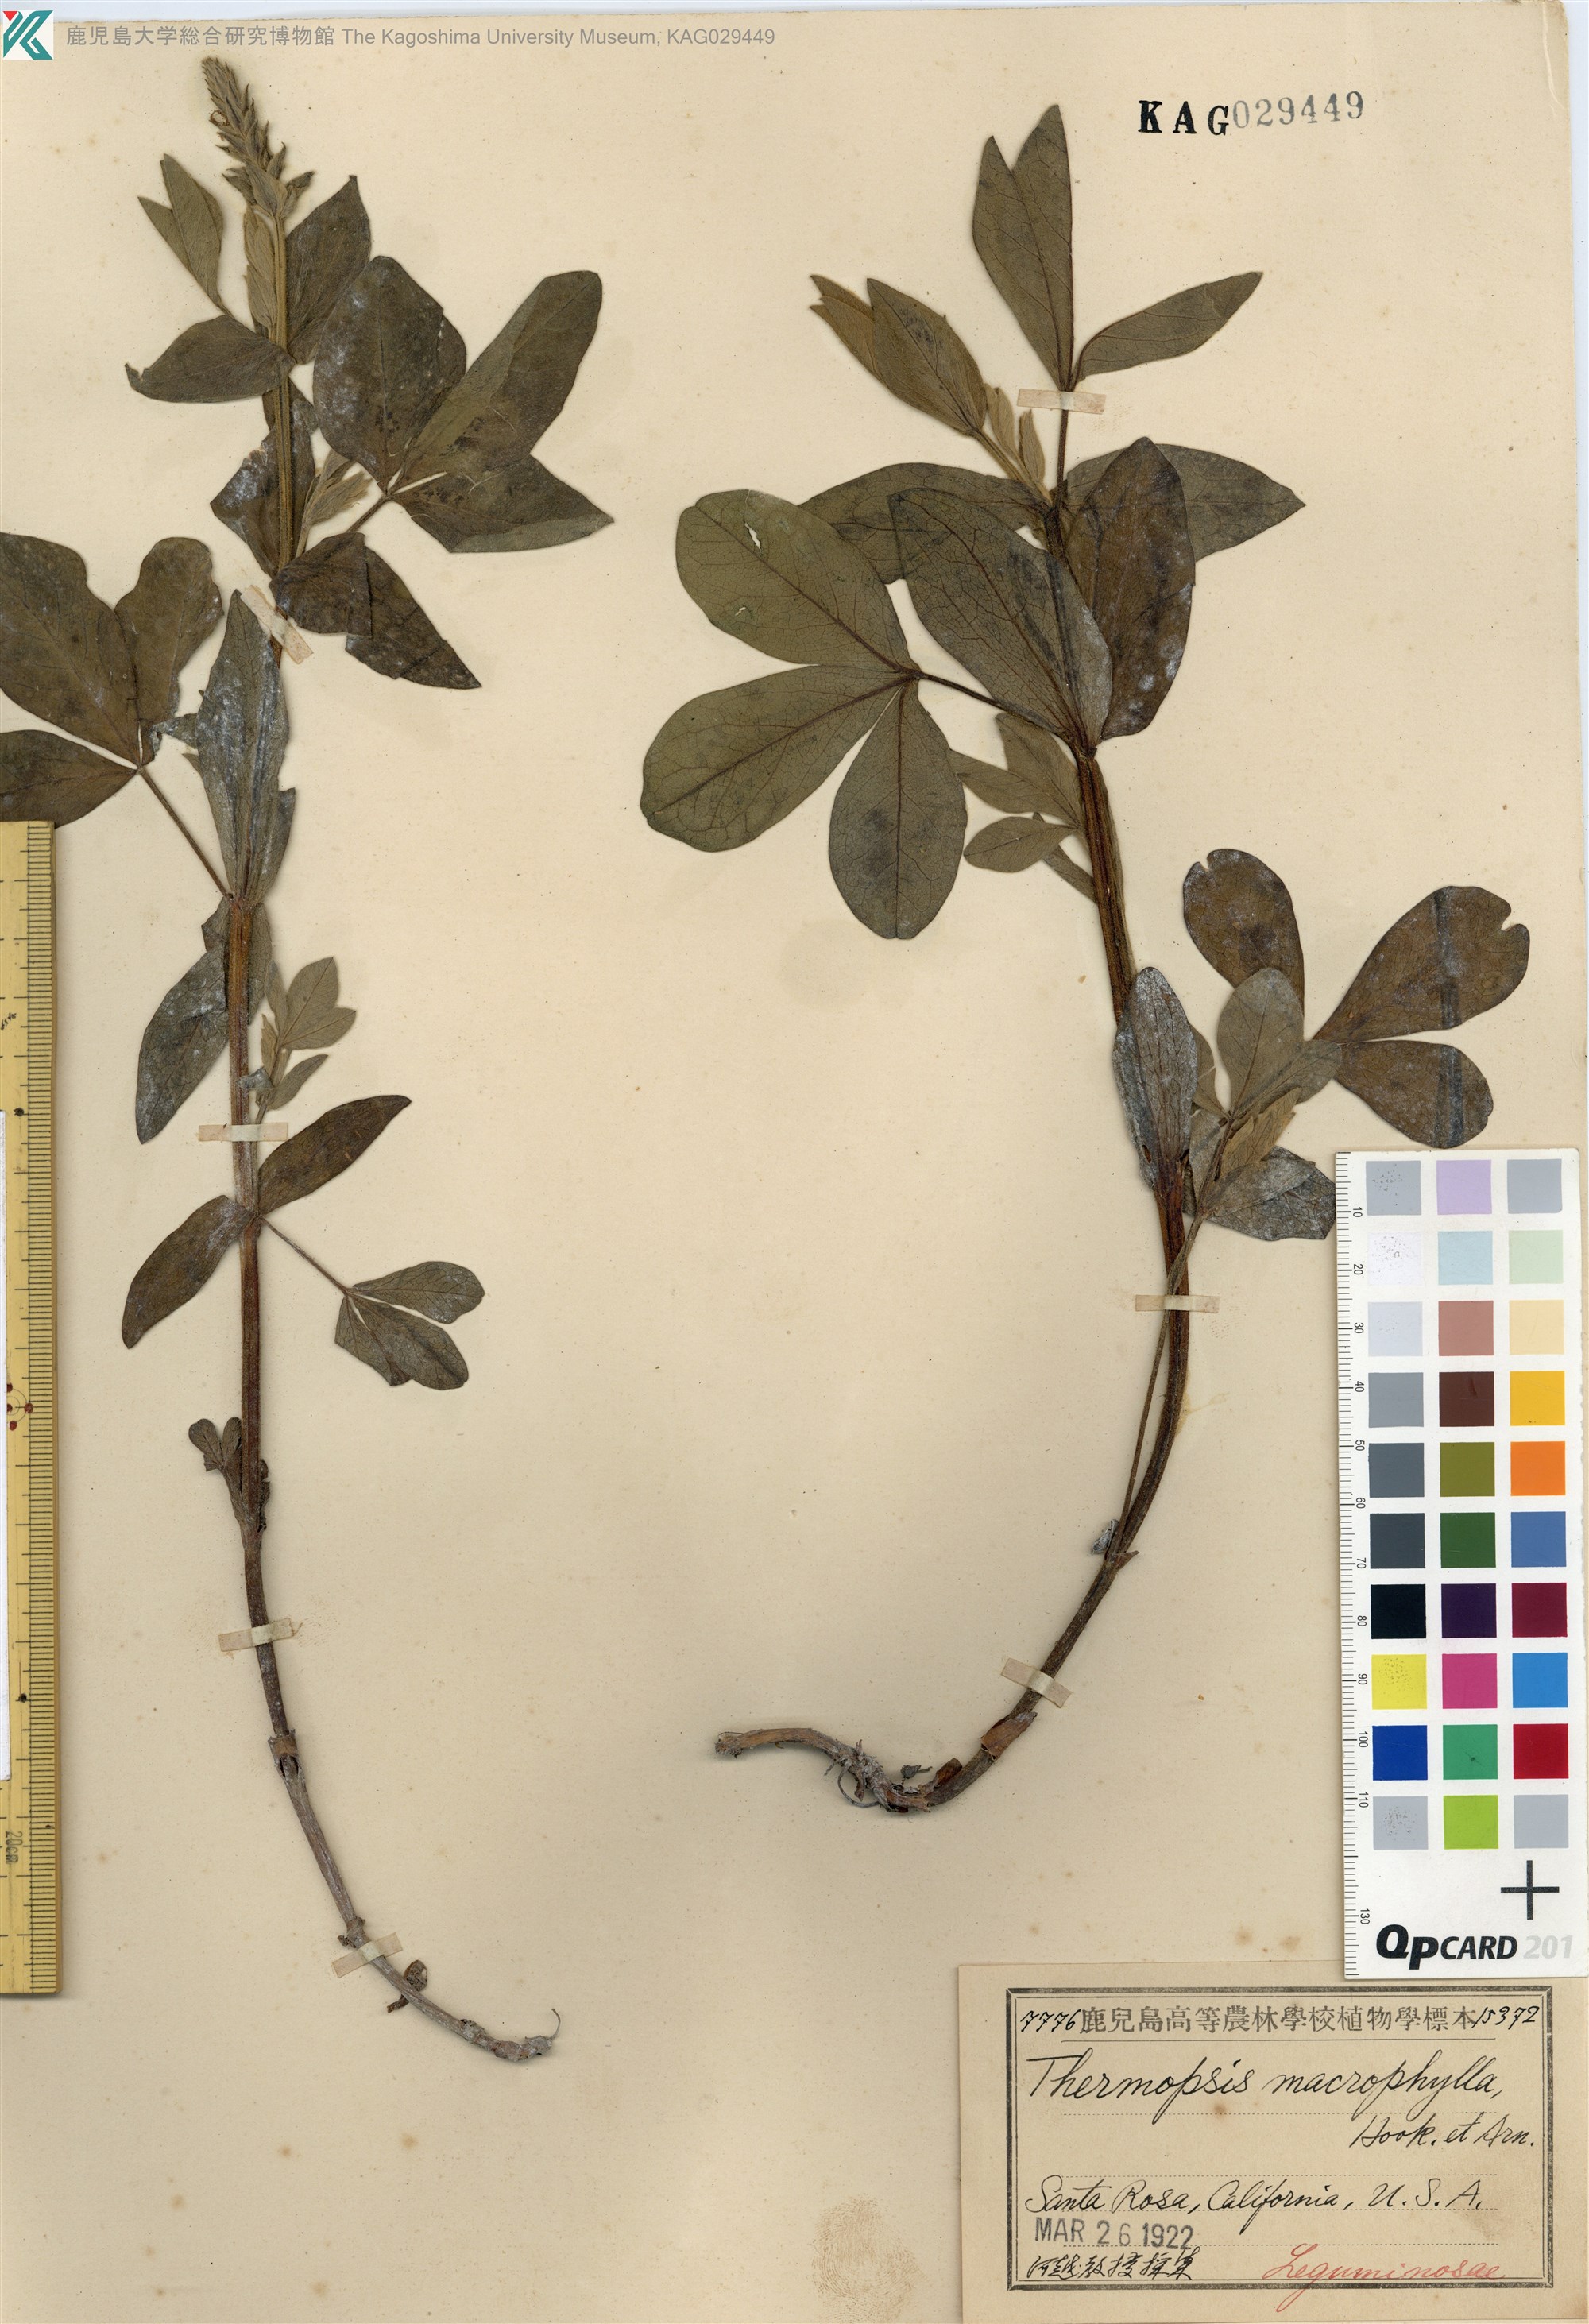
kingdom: Plantae
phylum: Tracheophyta
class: Magnoliopsida
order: Fabales
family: Fabaceae
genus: Thermopsis
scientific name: Thermopsis macrophylla
